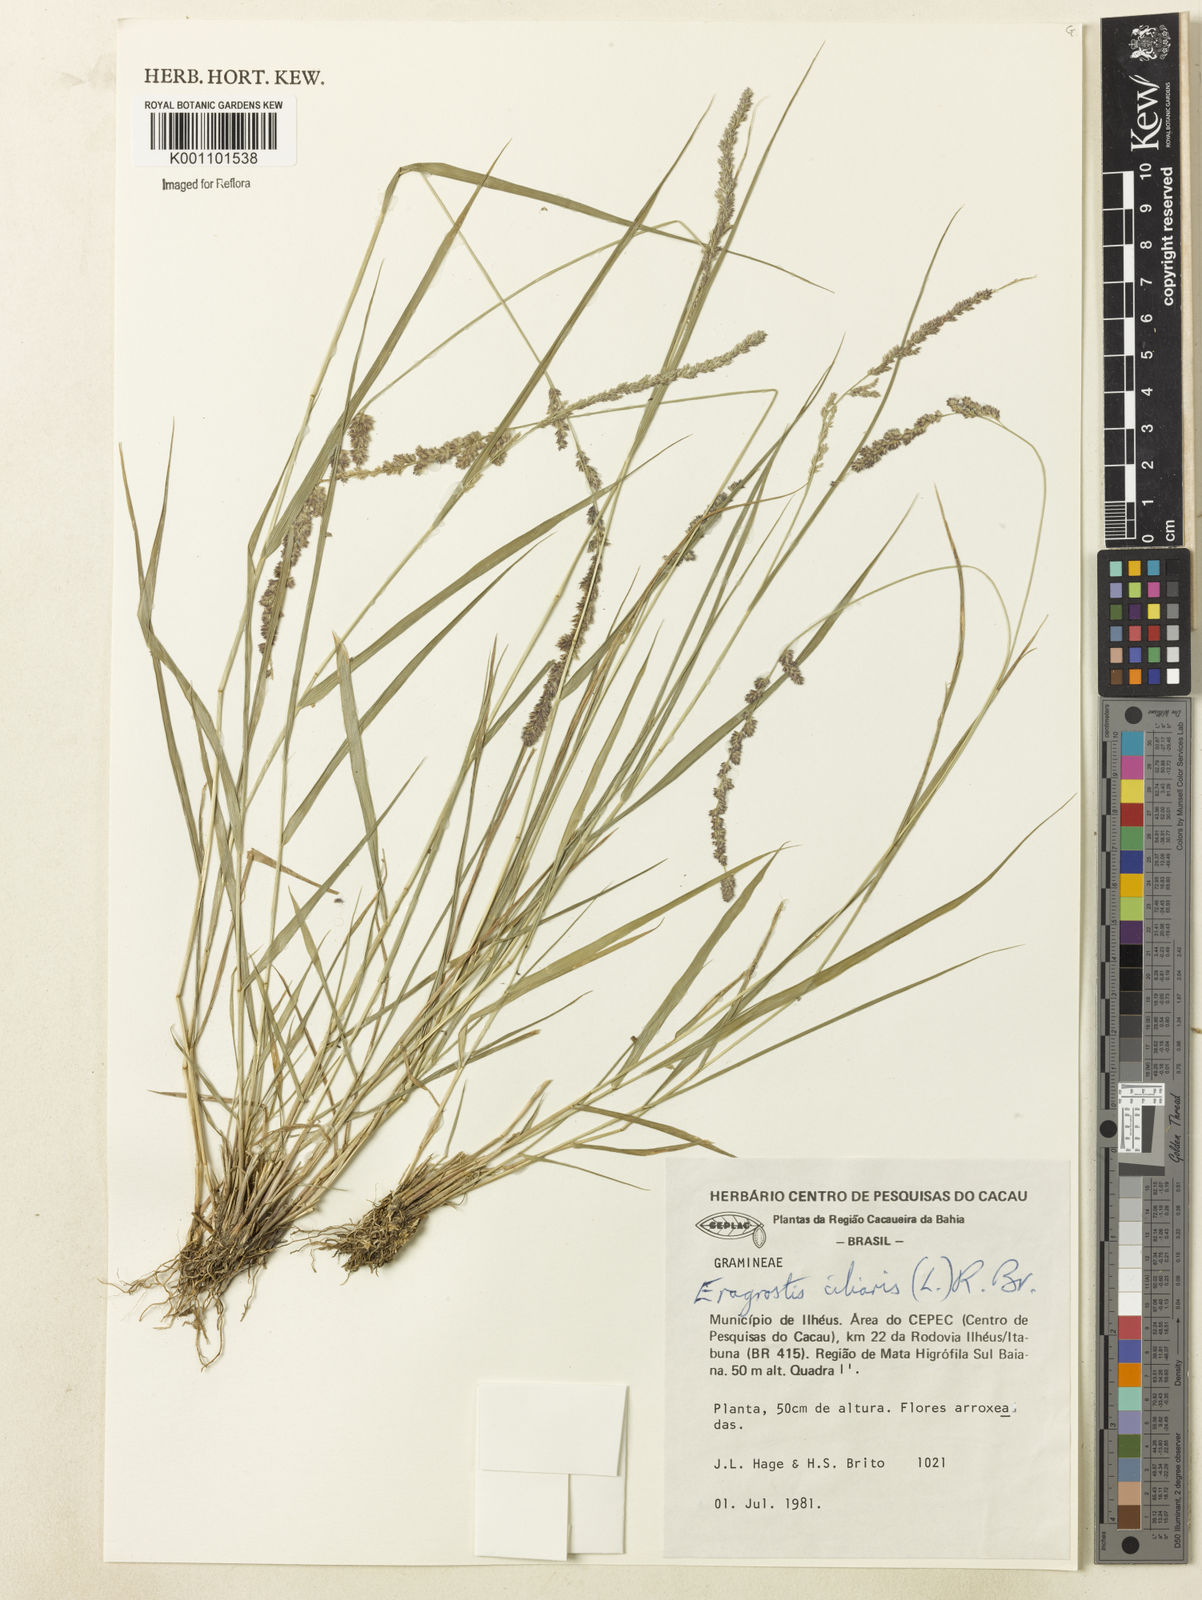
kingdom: Plantae
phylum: Tracheophyta
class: Liliopsida
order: Poales
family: Poaceae
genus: Eragrostis
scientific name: Eragrostis ciliaris
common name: Gophertail lovegrass
